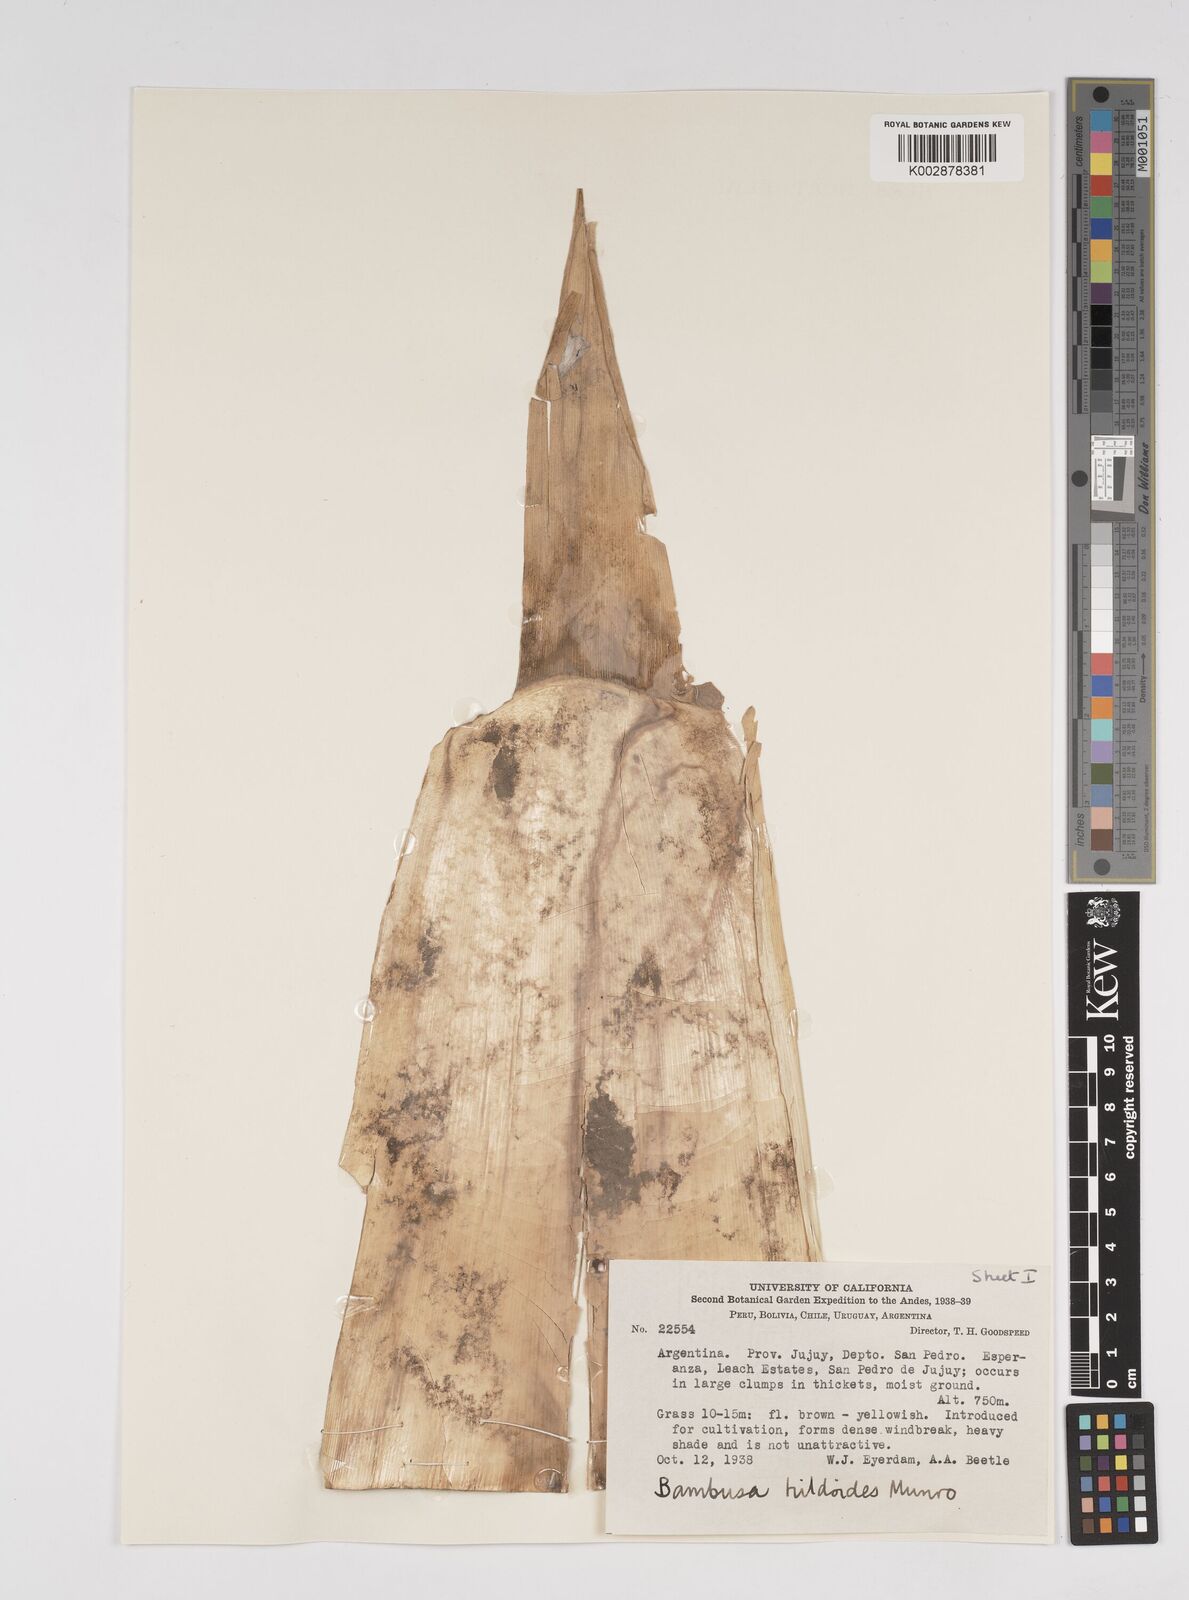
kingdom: Plantae
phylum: Tracheophyta
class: Liliopsida
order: Poales
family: Poaceae
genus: Bambusa
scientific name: Bambusa tuldoides
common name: Verdant bamboo
